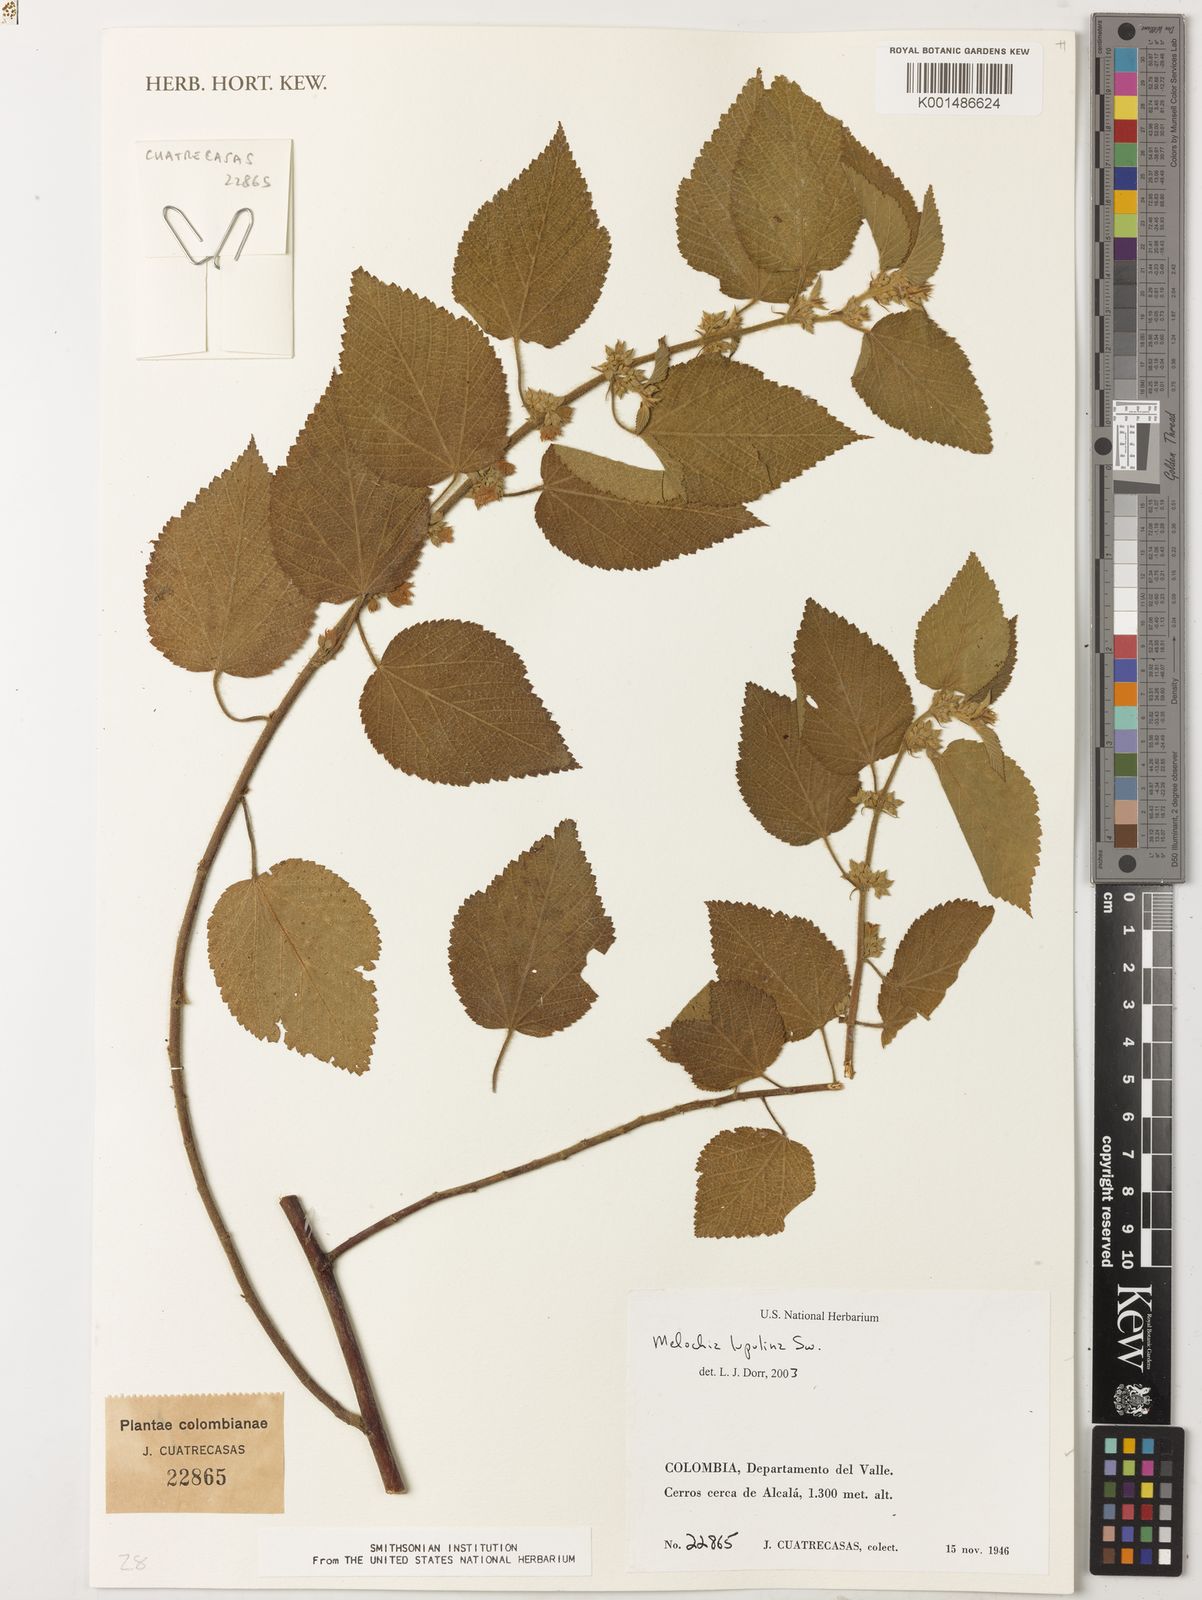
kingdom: Plantae
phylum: Tracheophyta
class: Magnoliopsida
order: Malvales
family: Malvaceae
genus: Melochia
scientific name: Melochia lupulina
